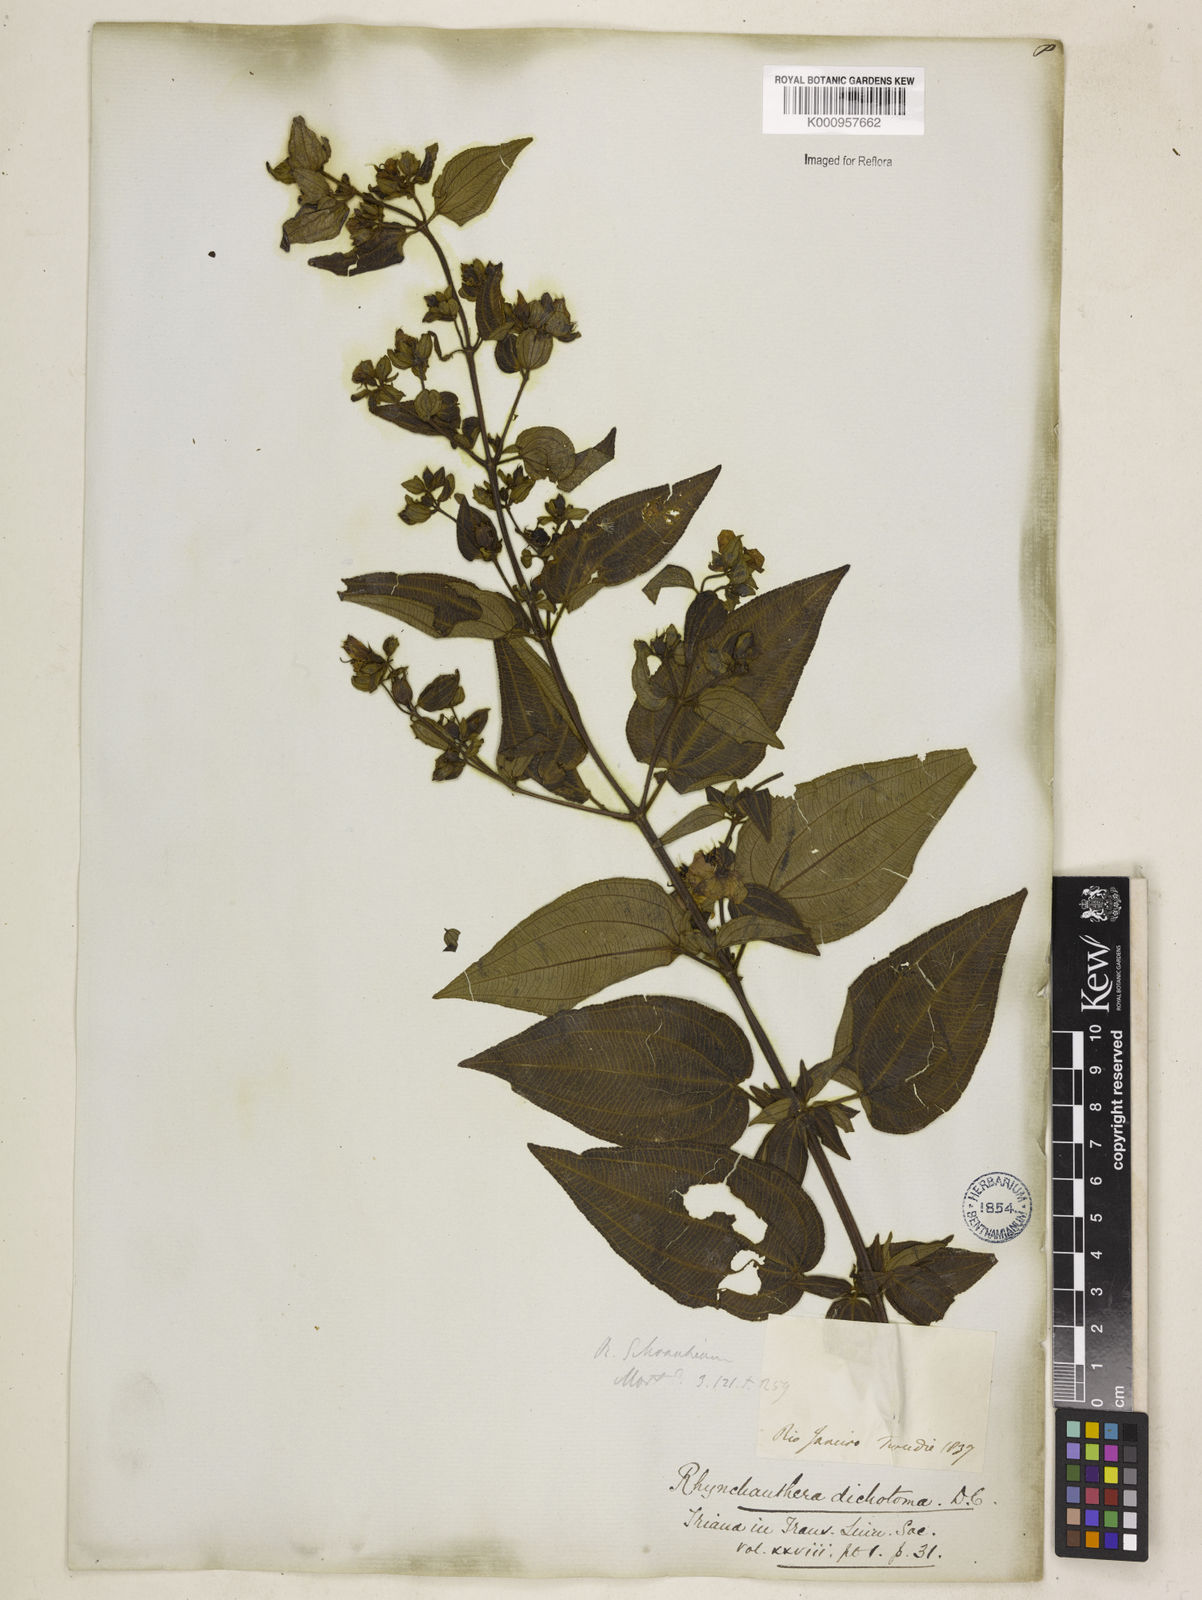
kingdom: Plantae
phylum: Tracheophyta
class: Magnoliopsida
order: Myrtales
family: Melastomataceae
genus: Rhynchanthera
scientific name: Rhynchanthera dichotoma
